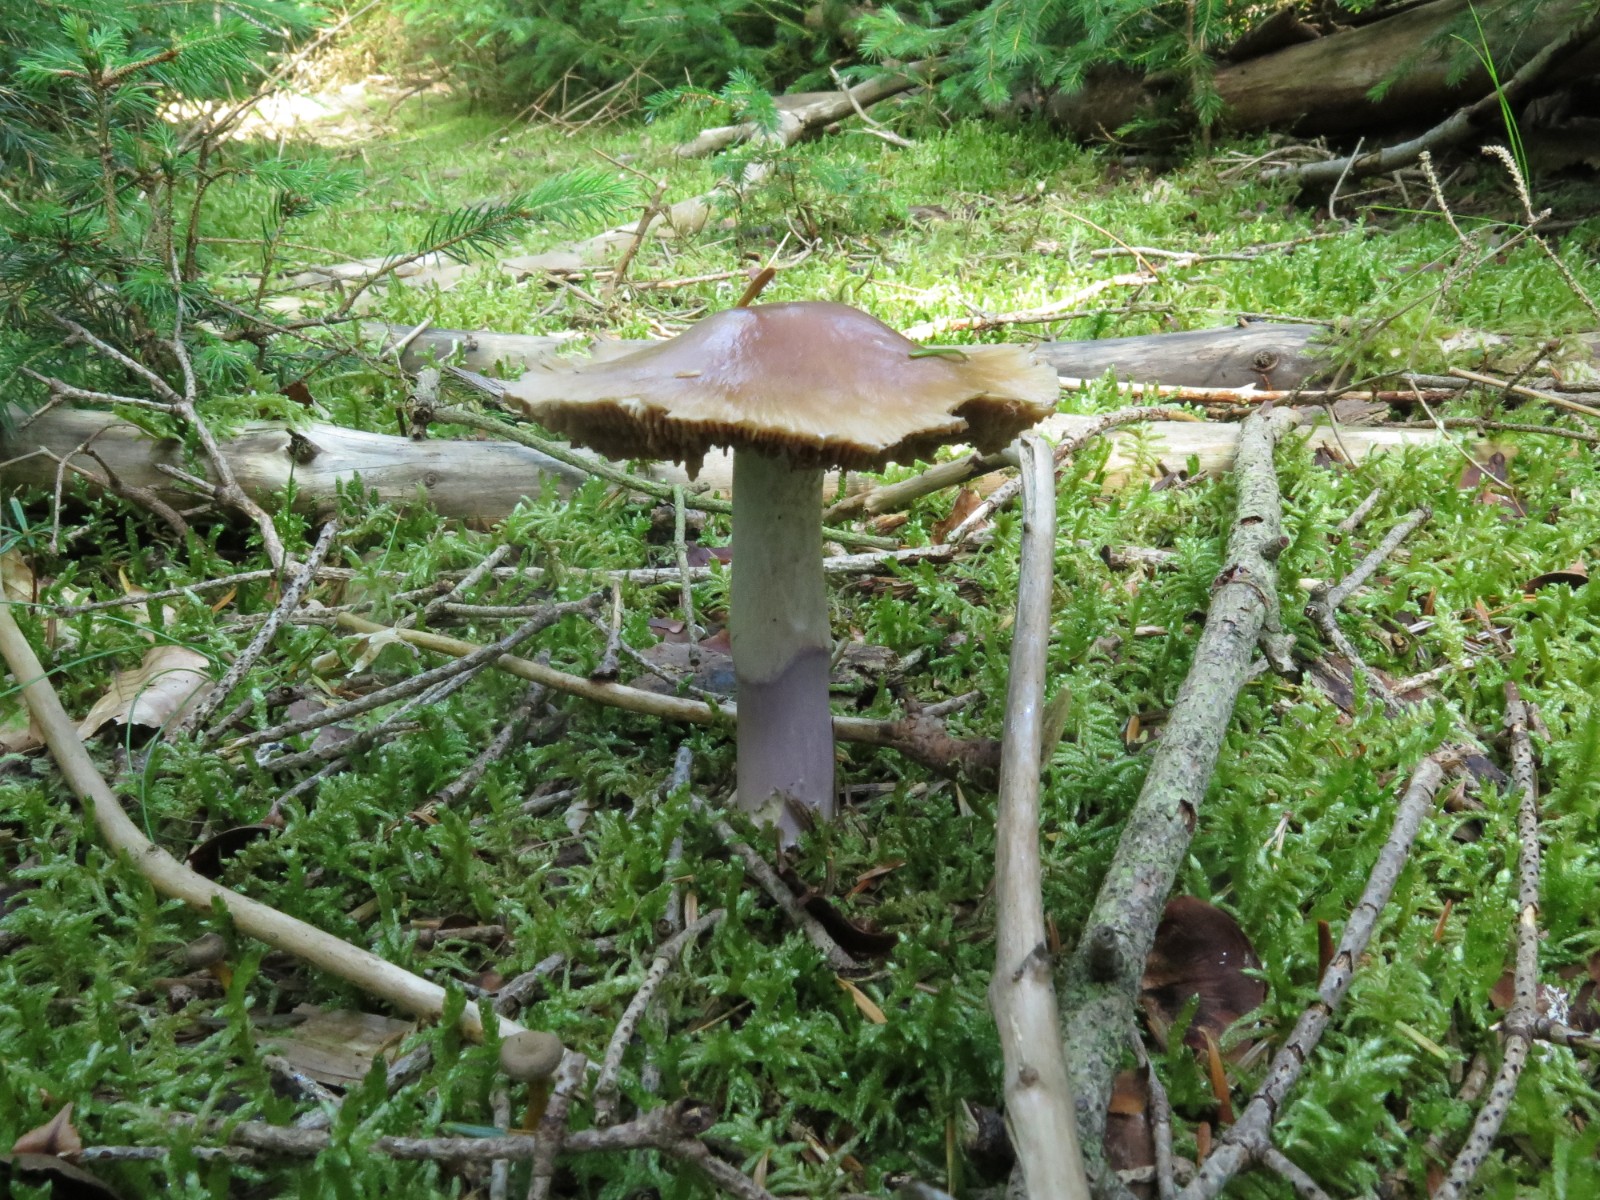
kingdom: Fungi
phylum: Basidiomycota
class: Agaricomycetes
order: Agaricales
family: Cortinariaceae
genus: Cortinarius
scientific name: Cortinarius elatior
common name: høj slørhat
